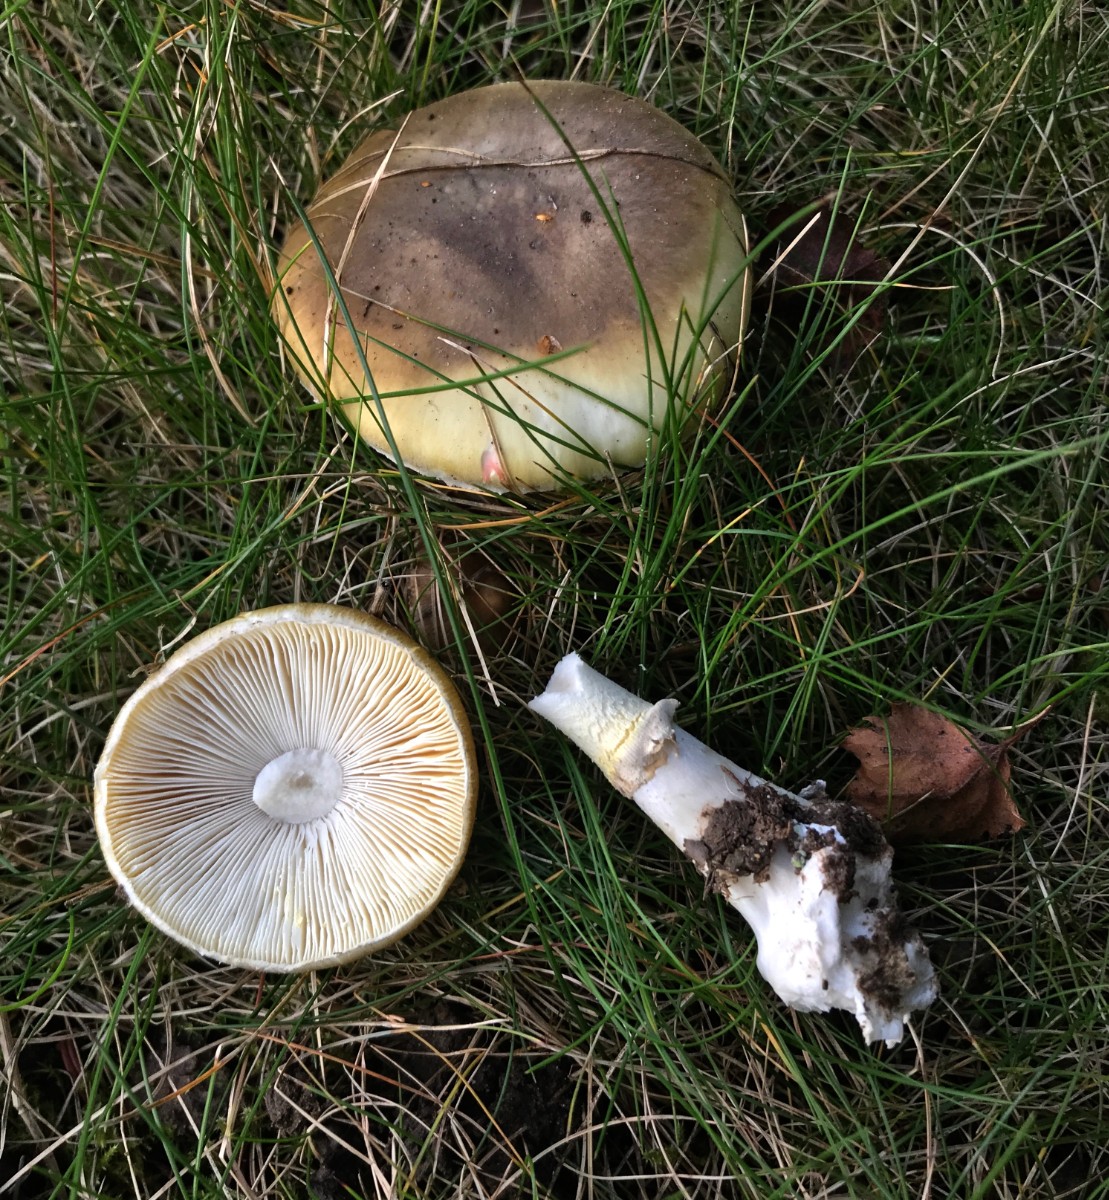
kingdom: Fungi
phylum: Basidiomycota
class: Agaricomycetes
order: Agaricales
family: Amanitaceae
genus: Amanita
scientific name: Amanita phalloides
